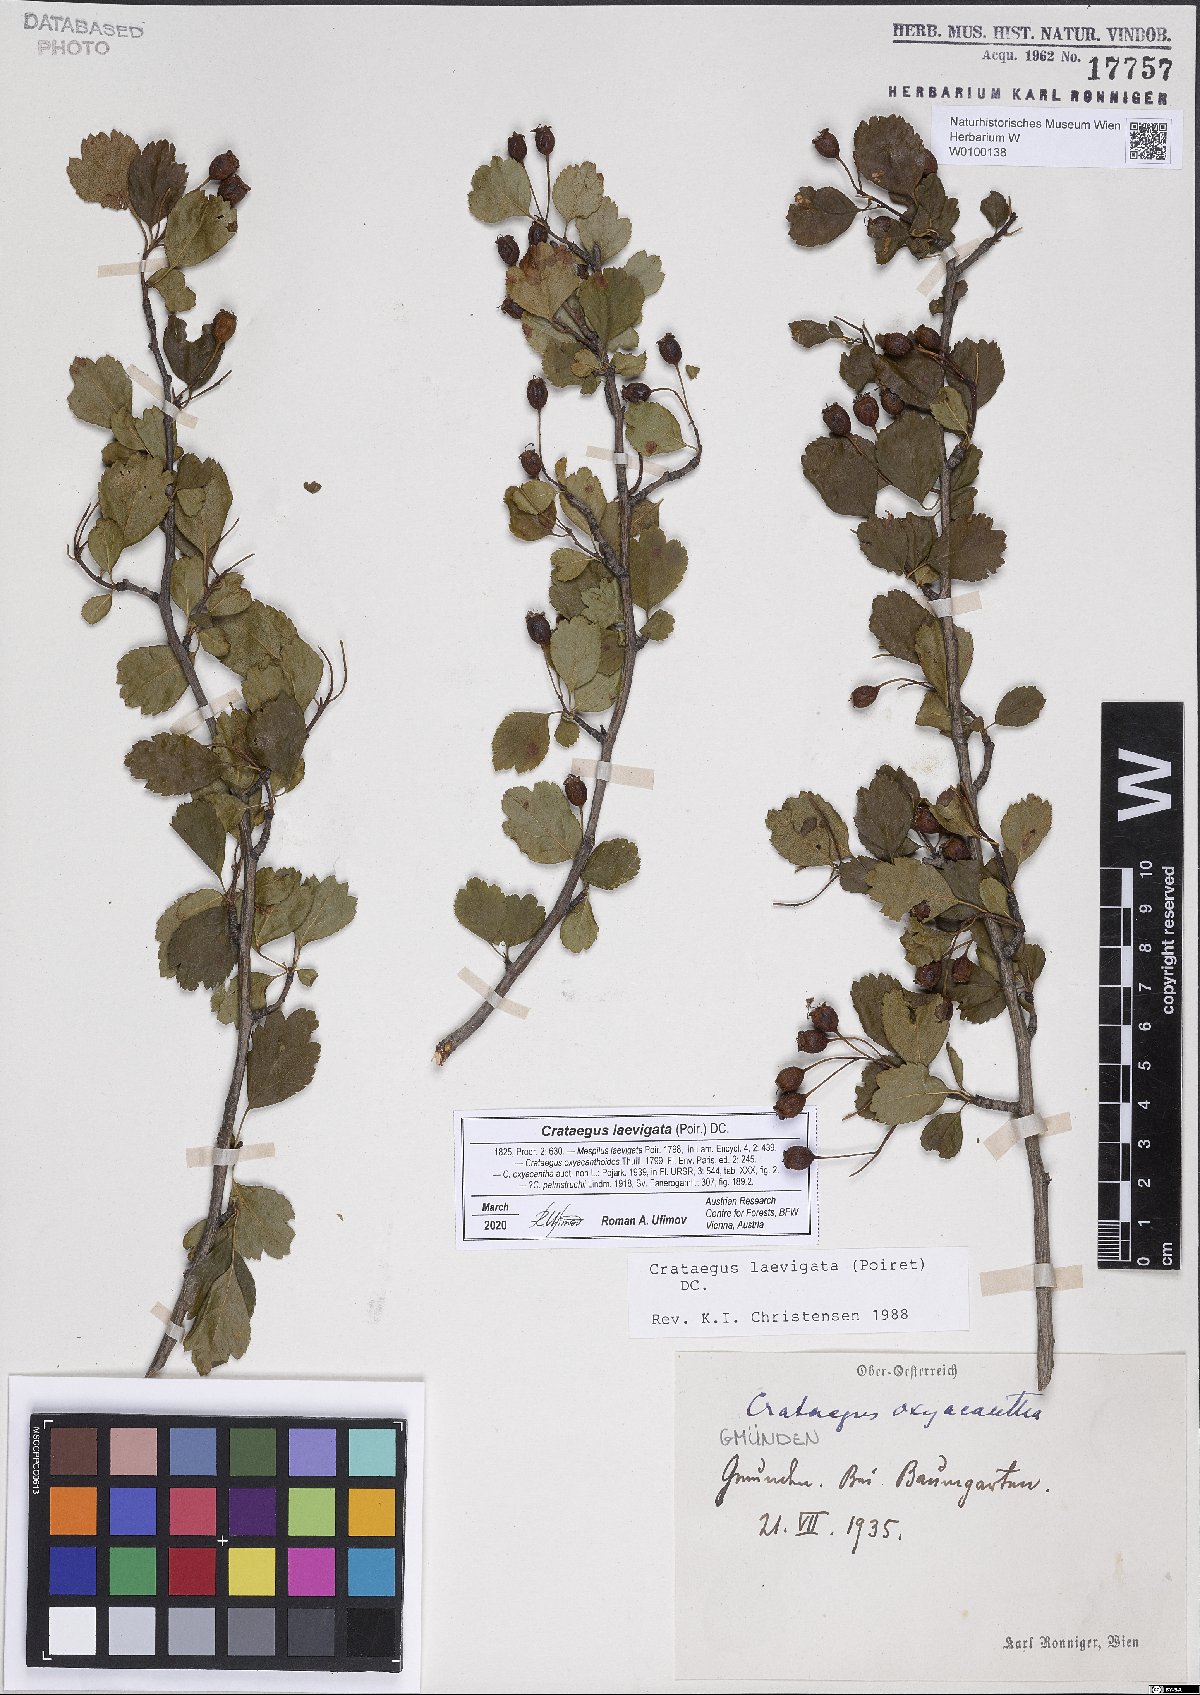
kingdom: Plantae
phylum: Tracheophyta
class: Magnoliopsida
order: Rosales
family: Rosaceae
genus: Crataegus
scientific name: Crataegus laevigata
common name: Midland hawthorn
